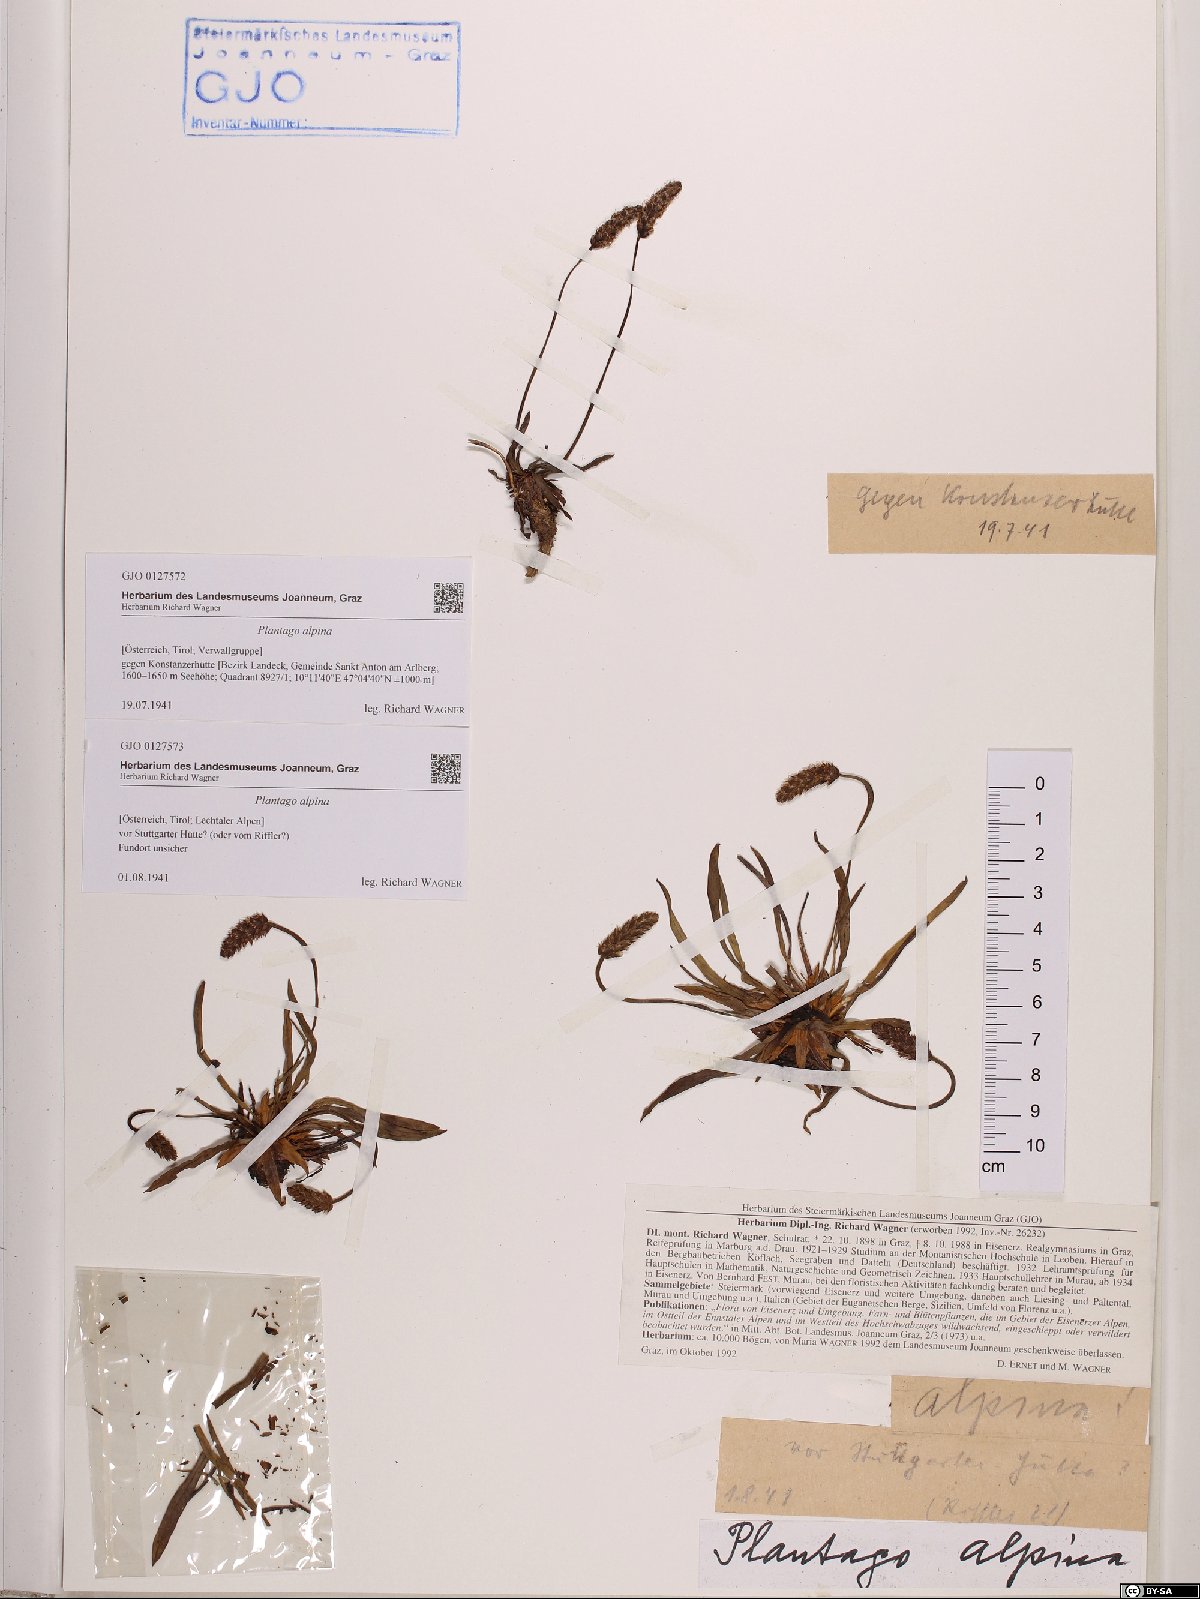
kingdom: Plantae
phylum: Tracheophyta
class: Magnoliopsida
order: Lamiales
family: Plantaginaceae
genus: Plantago
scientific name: Plantago alpina
